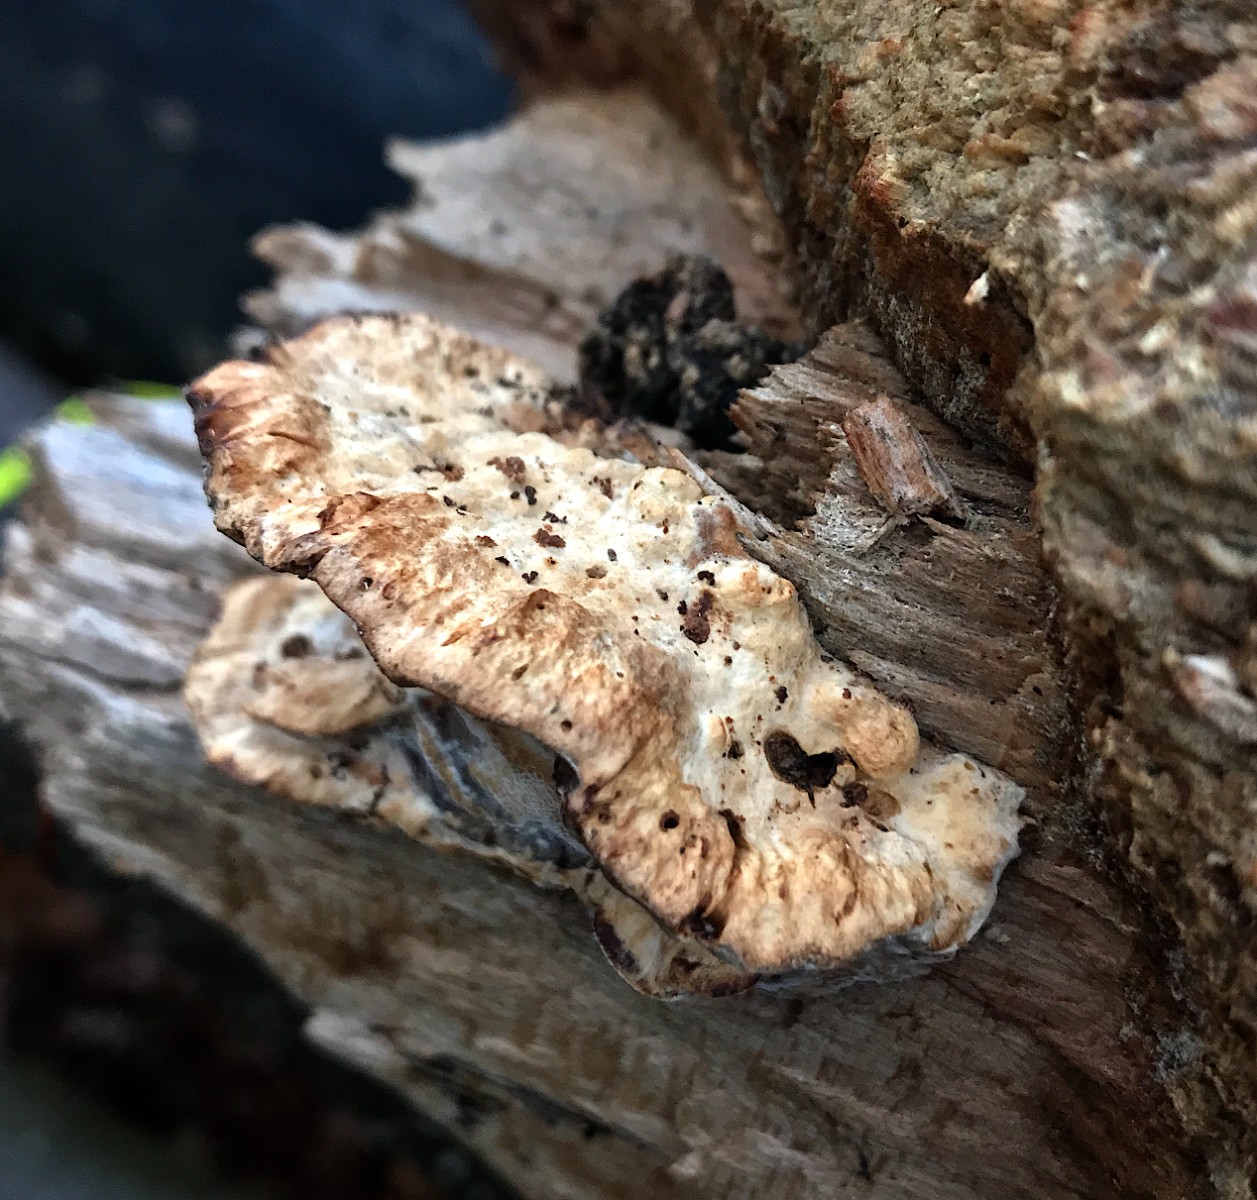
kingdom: Fungi
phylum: Basidiomycota
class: Agaricomycetes
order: Polyporales
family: Phanerochaetaceae
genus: Bjerkandera
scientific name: Bjerkandera fumosa
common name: grågul sodporesvamp
